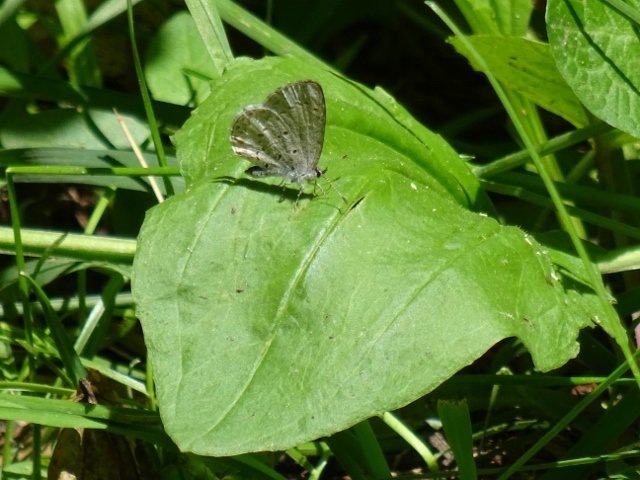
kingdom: Animalia
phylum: Arthropoda
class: Insecta
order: Lepidoptera
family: Lycaenidae
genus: Celastrina
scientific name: Celastrina
